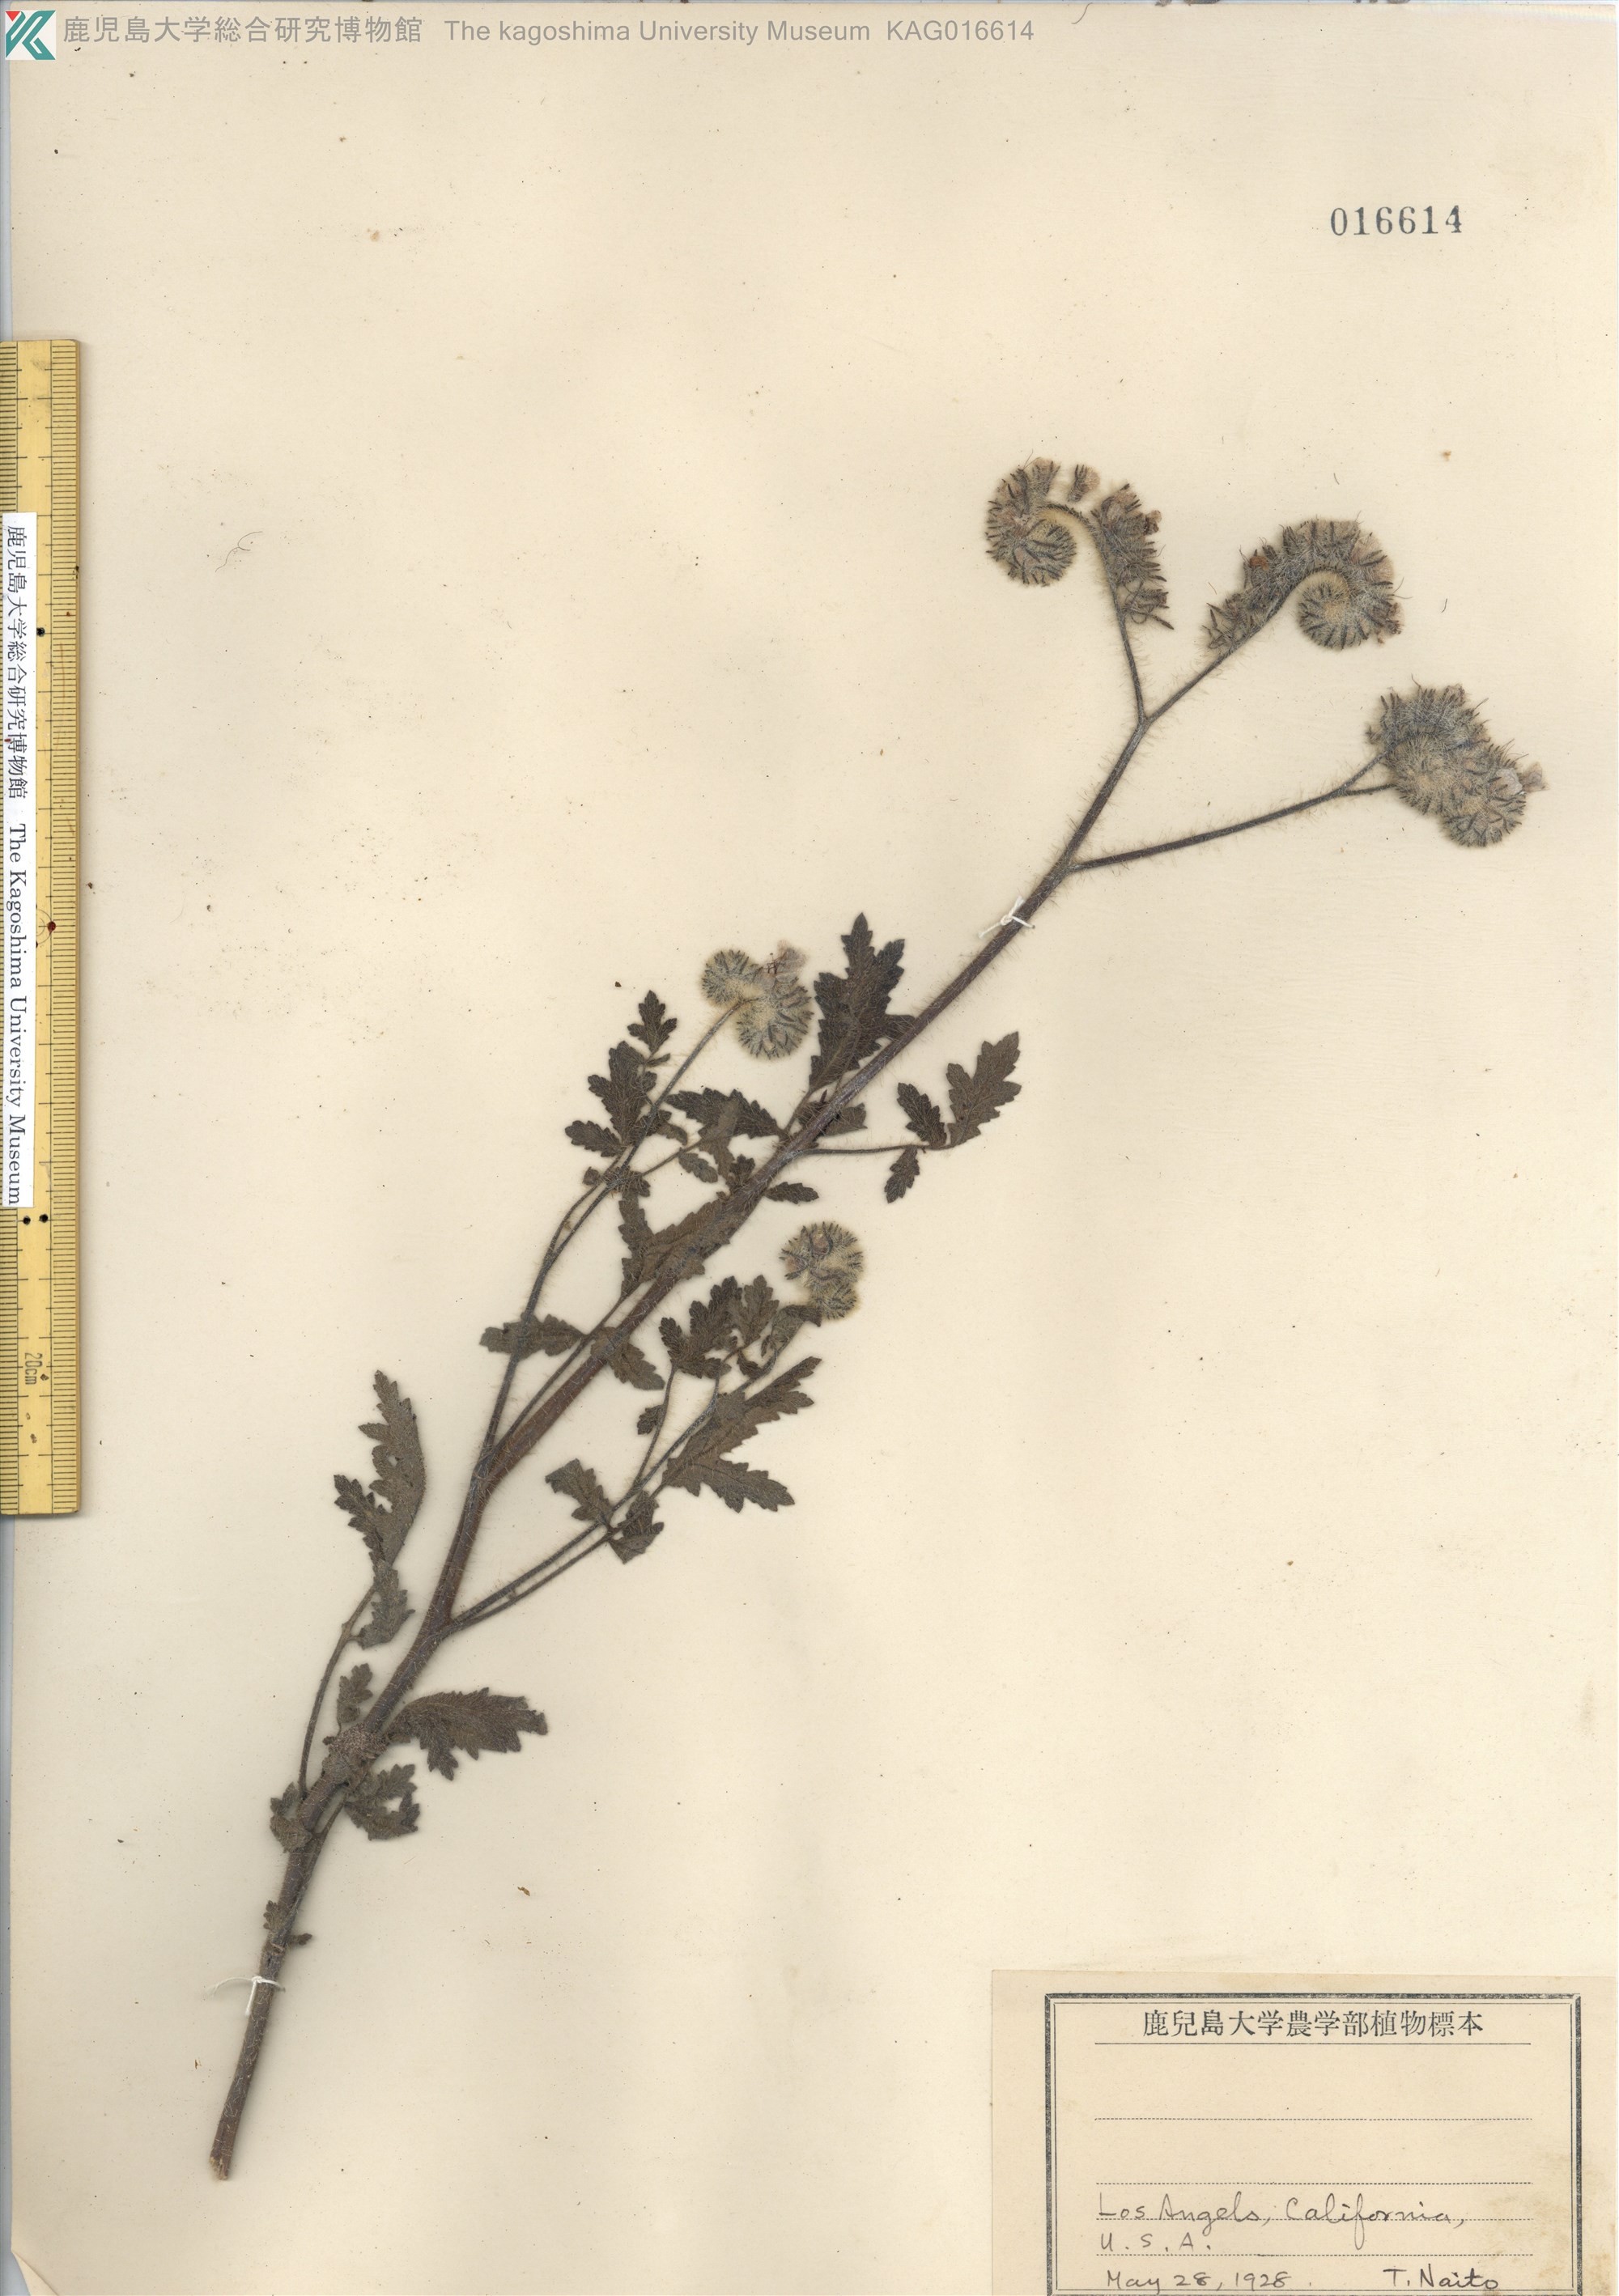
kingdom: Plantae
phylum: Tracheophyta
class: Magnoliopsida
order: Boraginales
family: Hydrophyllaceae
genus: Phacelia
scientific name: Phacelia ramosissima
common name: Branching phacelia
